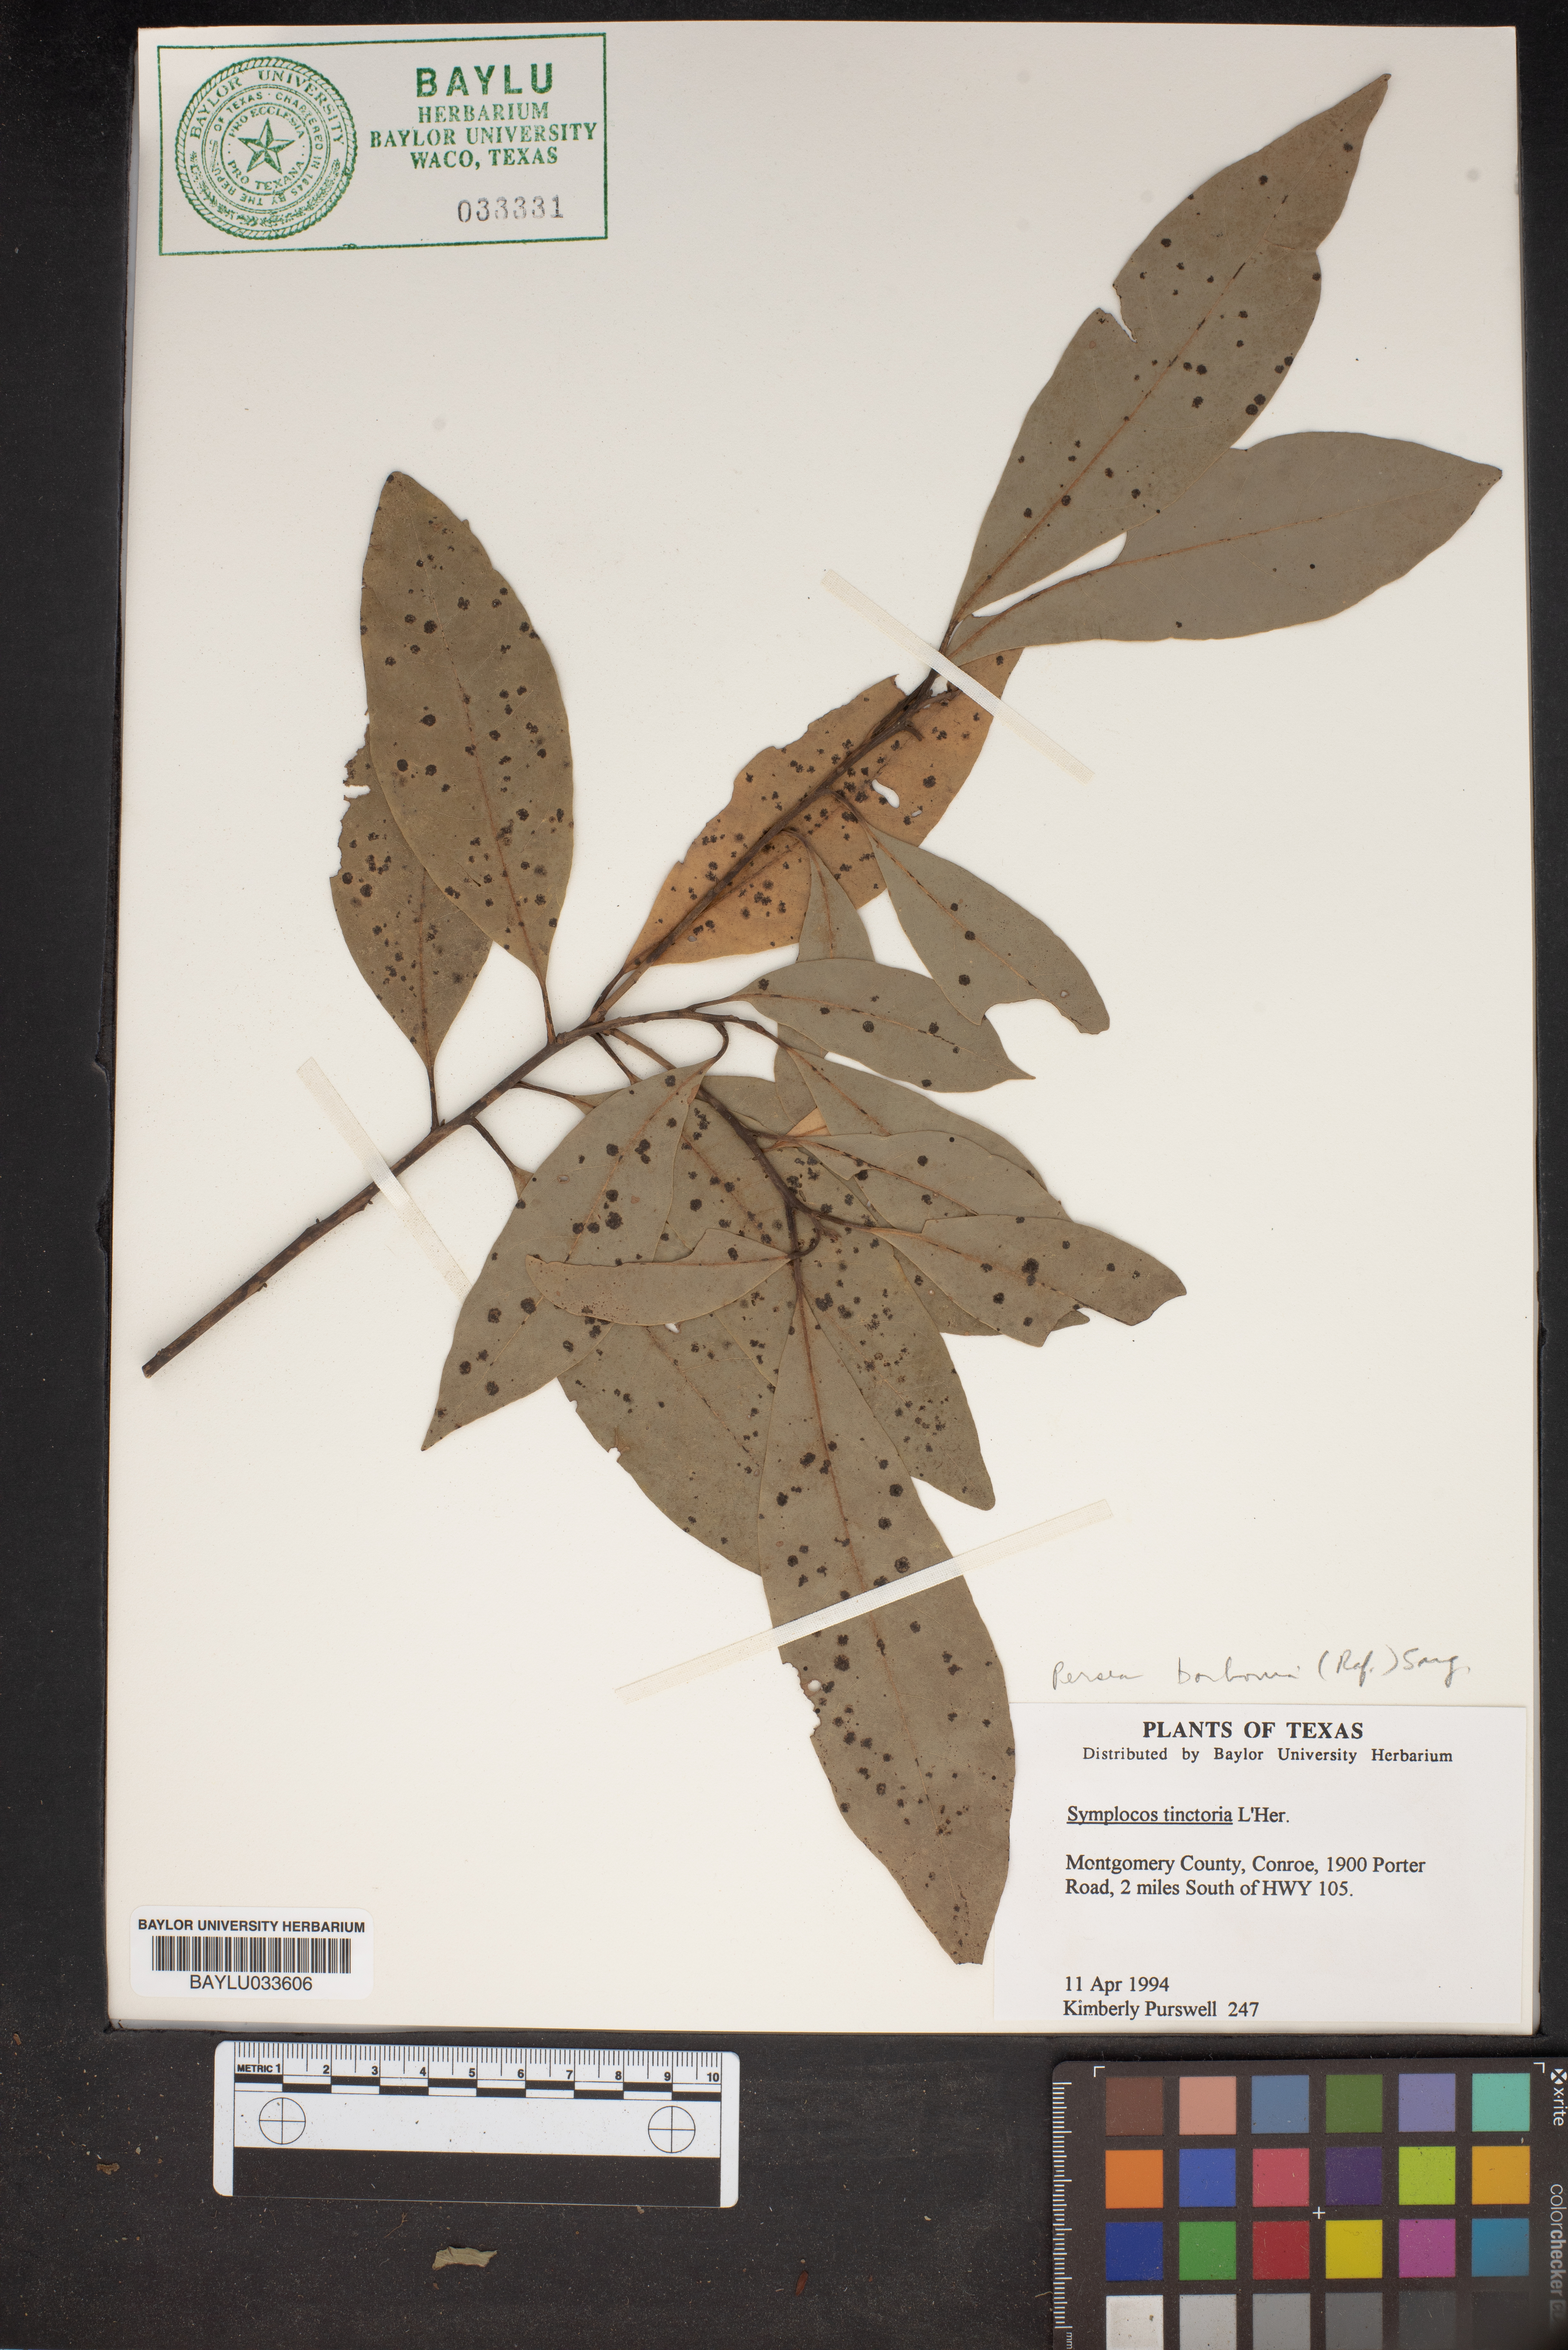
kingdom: Plantae
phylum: Tracheophyta
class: Magnoliopsida
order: Ericales
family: Symplocaceae
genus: Symplocos
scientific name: Symplocos tinctoria
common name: Horse-sugar
